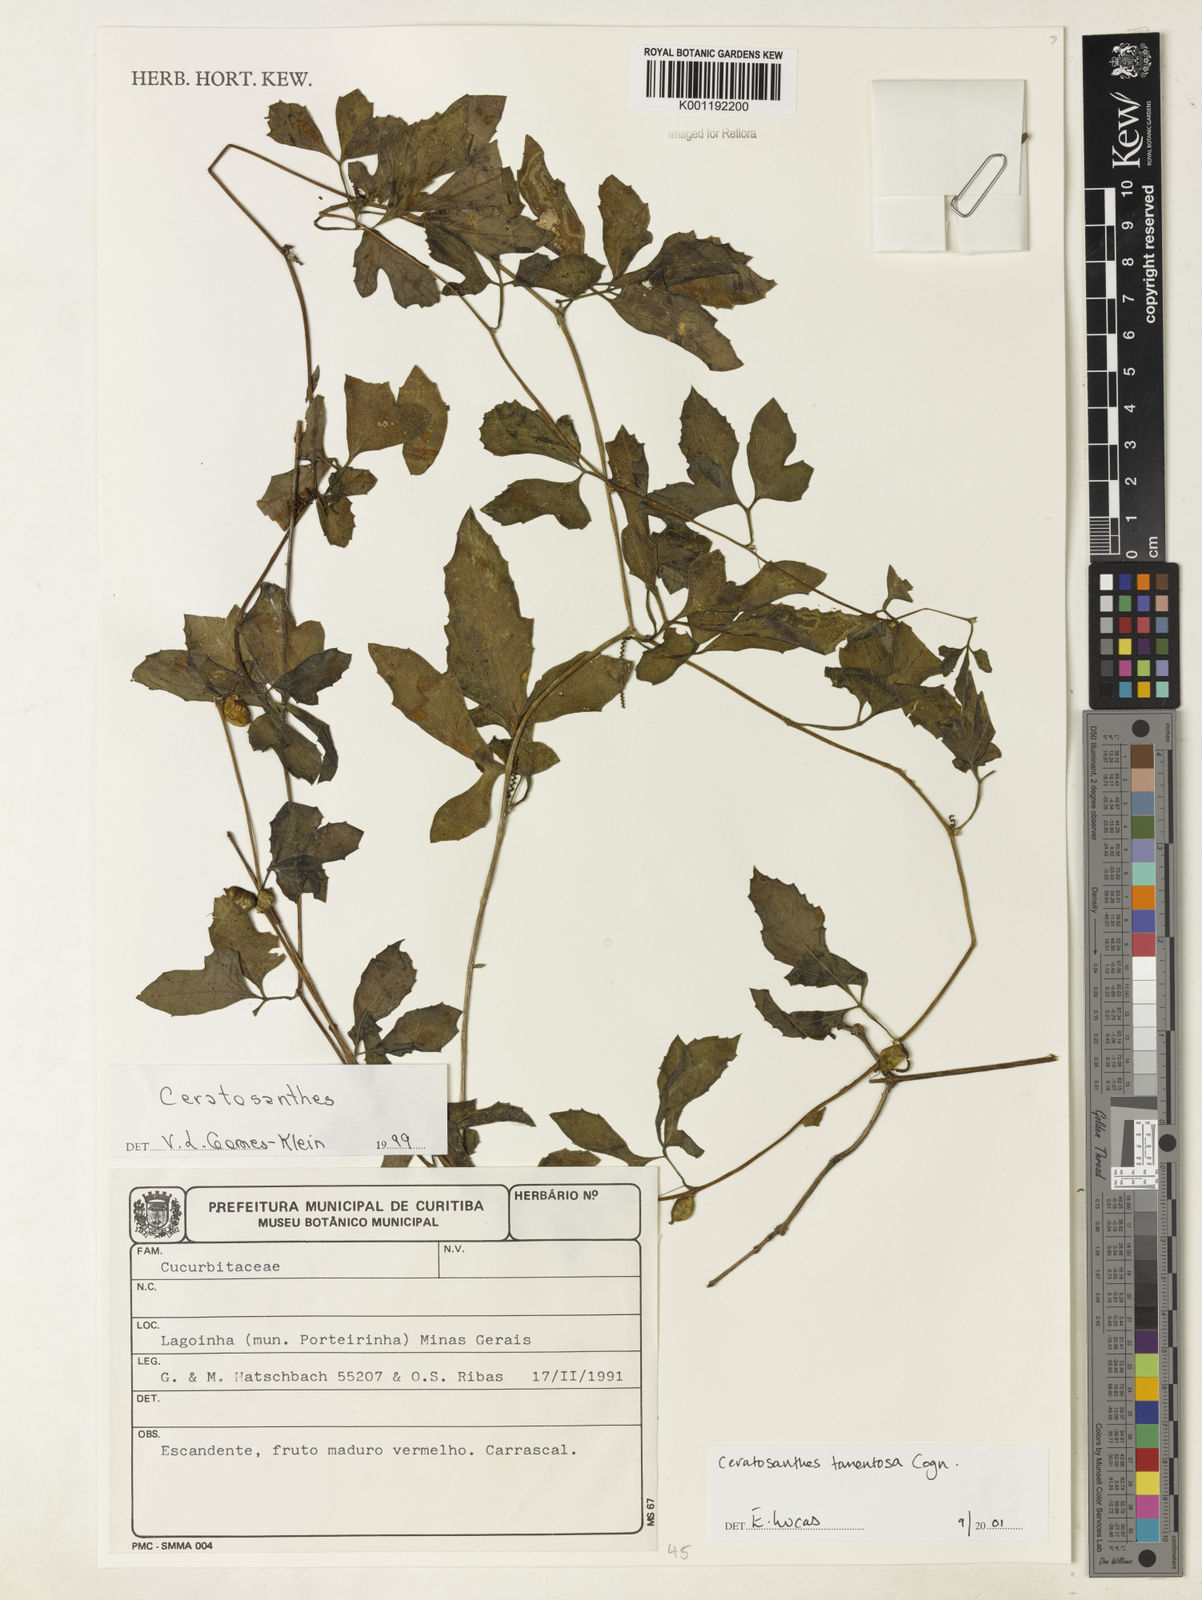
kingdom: Plantae
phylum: Tracheophyta
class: Magnoliopsida
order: Cucurbitales
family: Cucurbitaceae
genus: Ceratosanthes
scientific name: Ceratosanthes tomentosa
